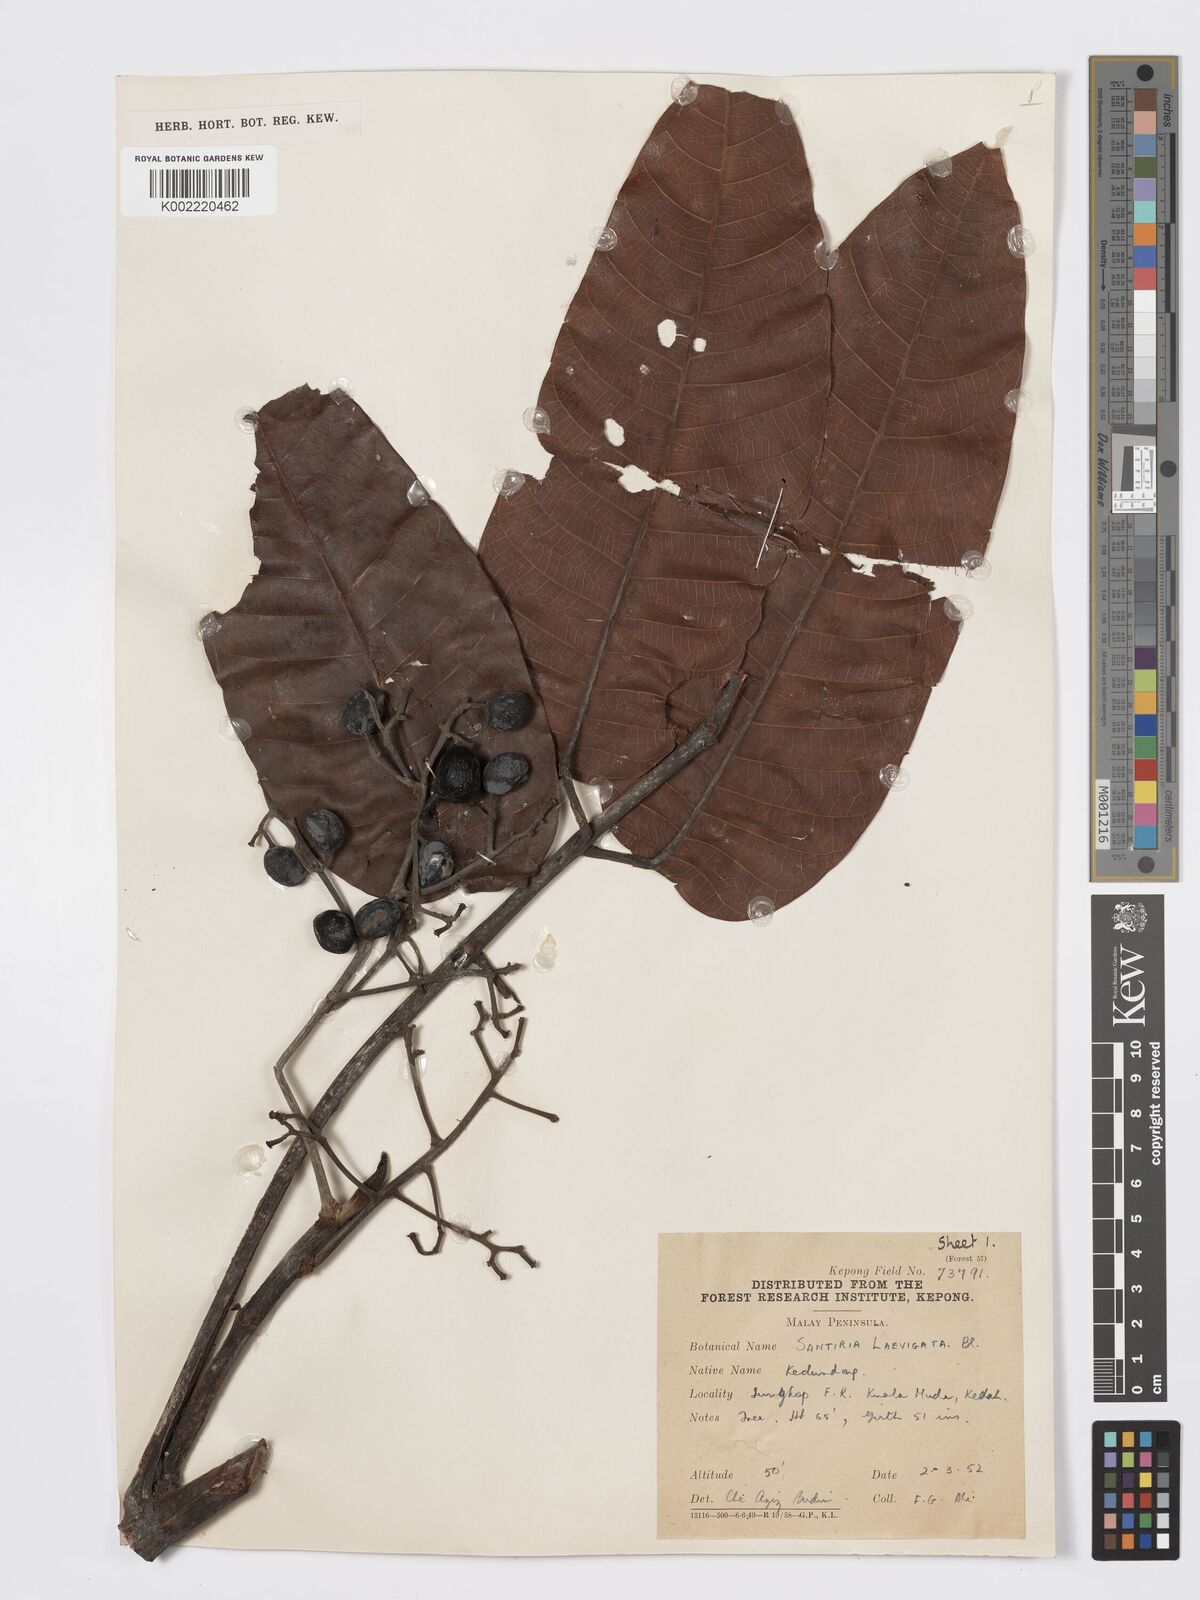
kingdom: Plantae
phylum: Tracheophyta
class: Magnoliopsida
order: Sapindales
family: Burseraceae
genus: Santiria
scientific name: Santiria laevigata
